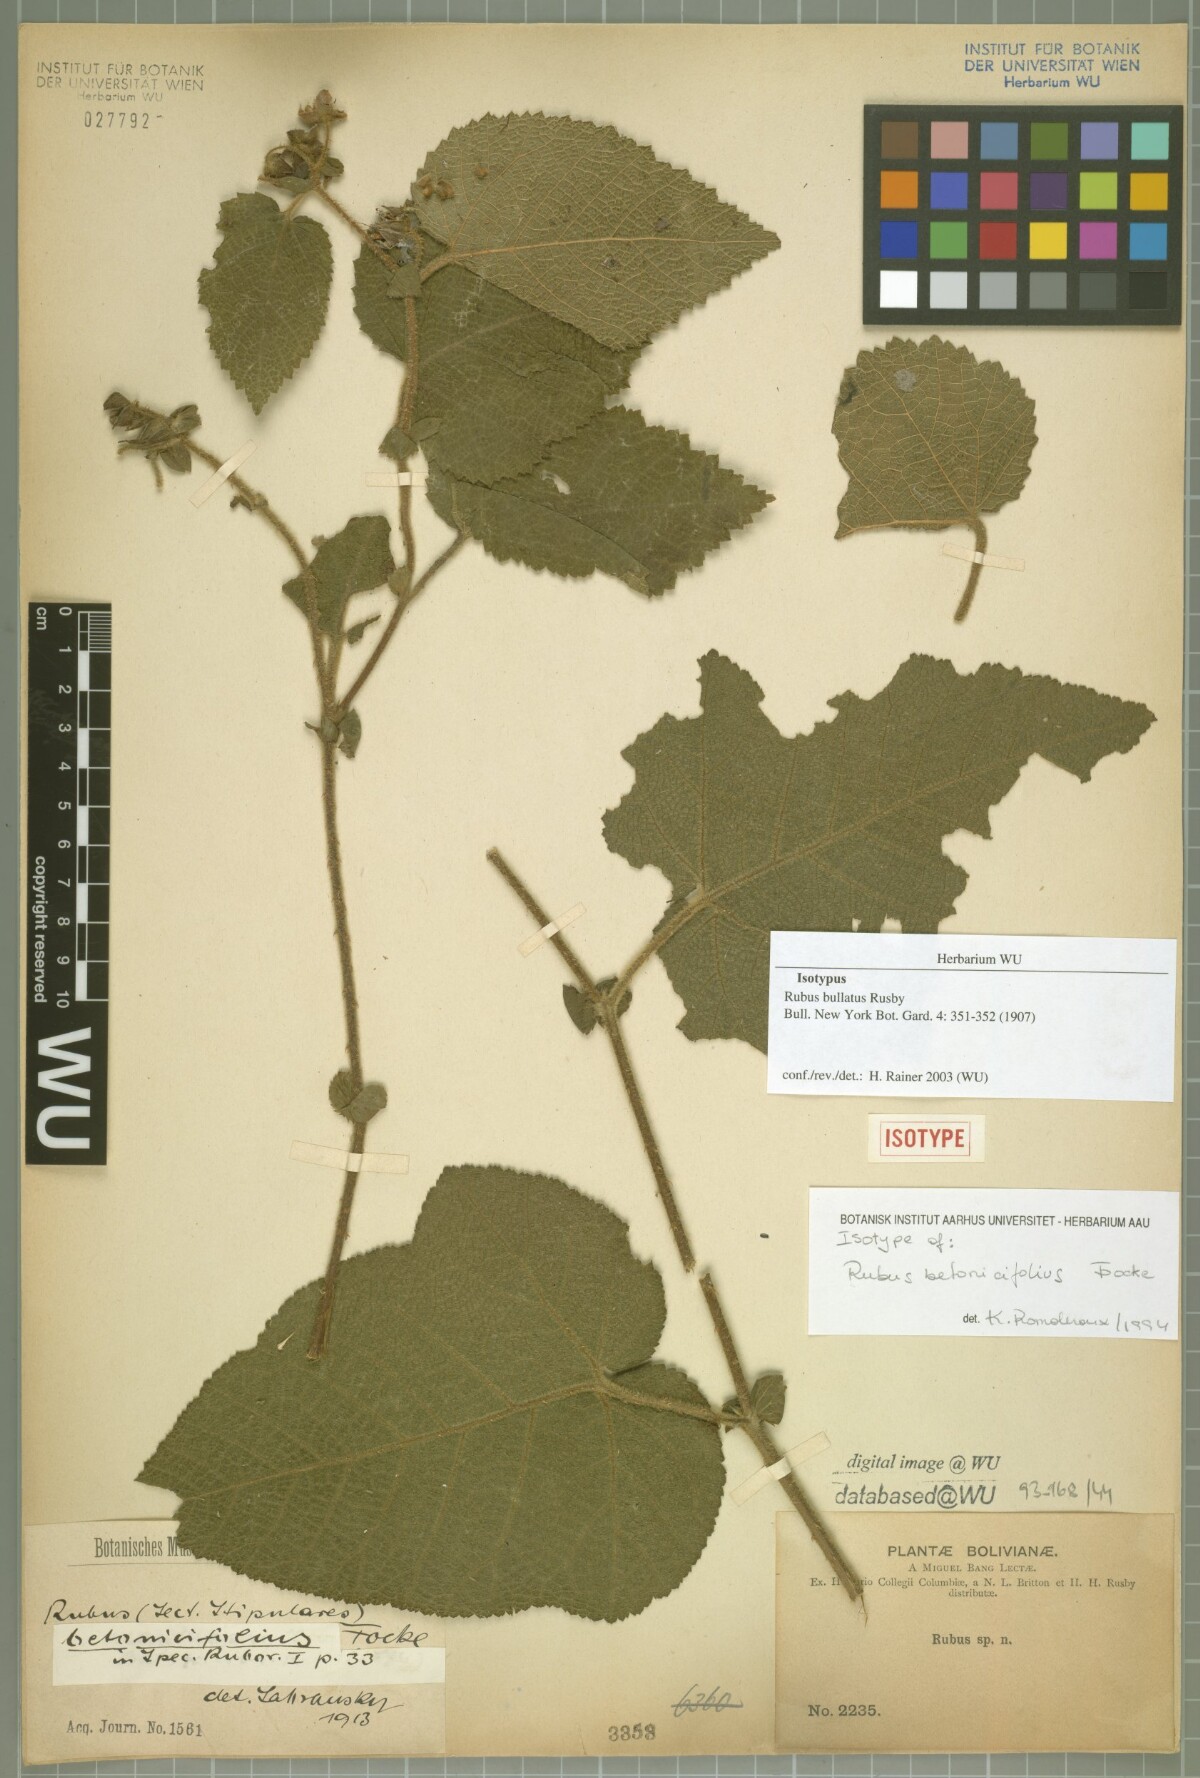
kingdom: Plantae
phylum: Tracheophyta
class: Magnoliopsida
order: Rosales
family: Rosaceae
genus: Rubus
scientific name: Rubus bullatus
